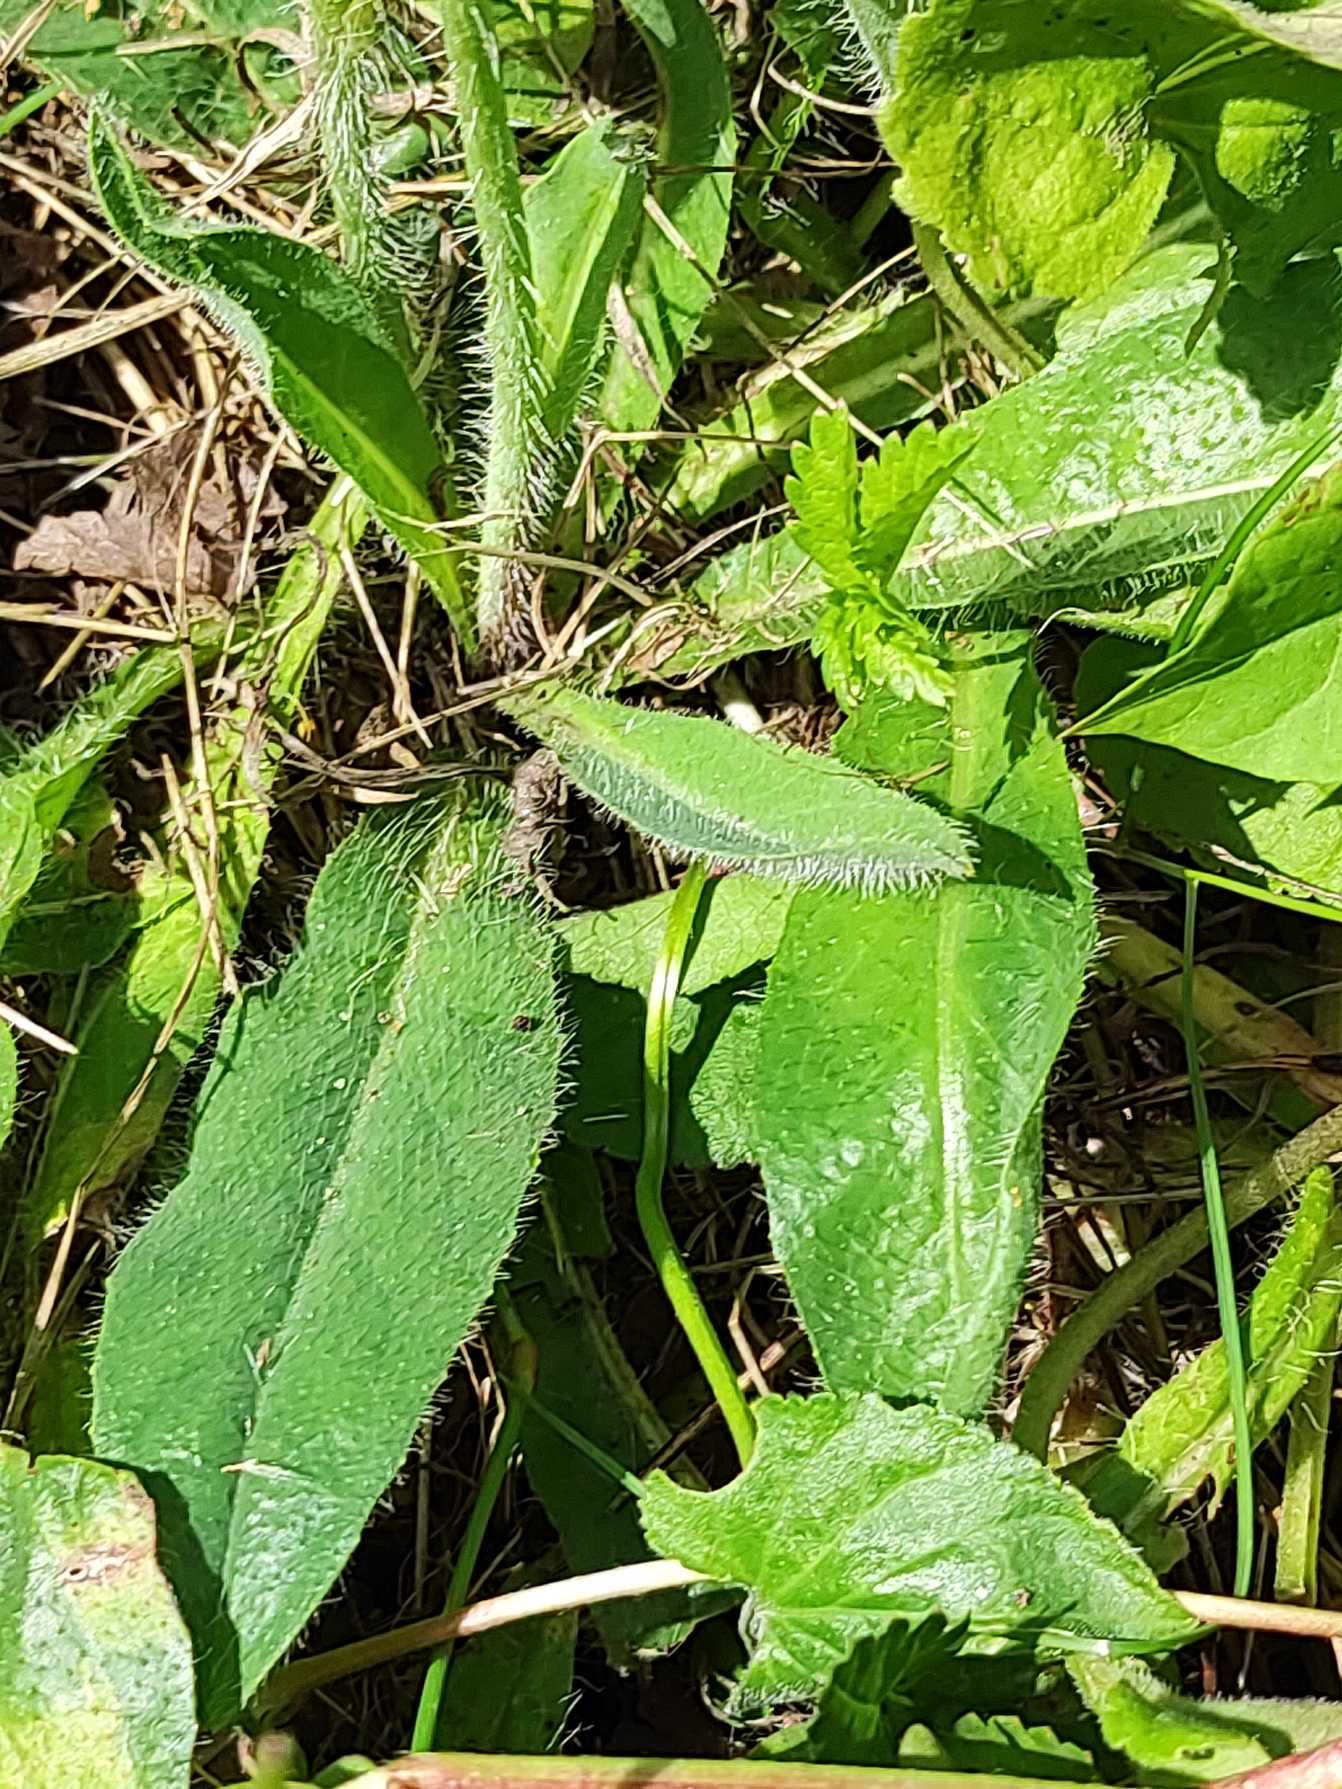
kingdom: Plantae
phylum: Tracheophyta
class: Magnoliopsida
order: Asterales
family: Asteraceae
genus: Pilosella
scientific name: Pilosella aurantiaca
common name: Pomerans-høgeurt
